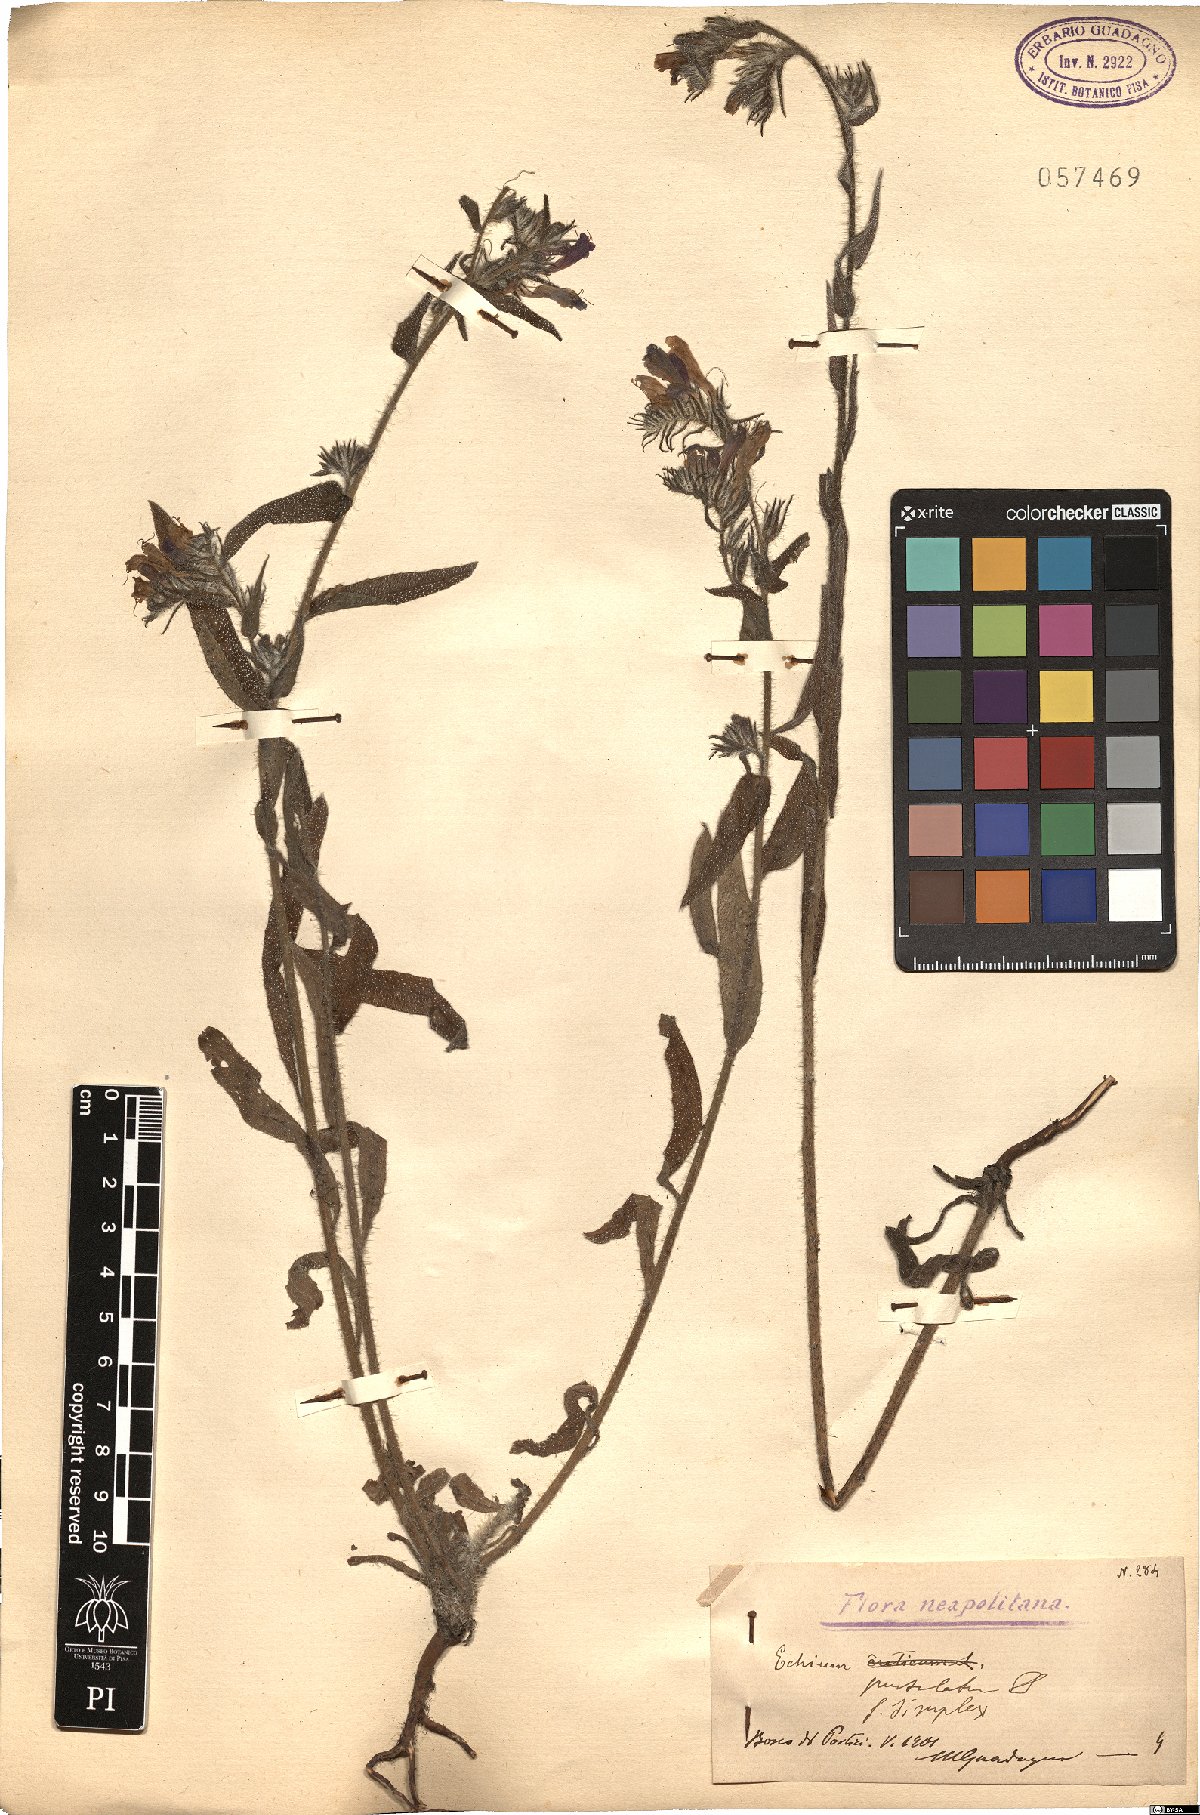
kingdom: Plantae
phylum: Tracheophyta
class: Magnoliopsida
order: Boraginales
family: Boraginaceae
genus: Echium
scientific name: Echium vulgare
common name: Common viper's bugloss
